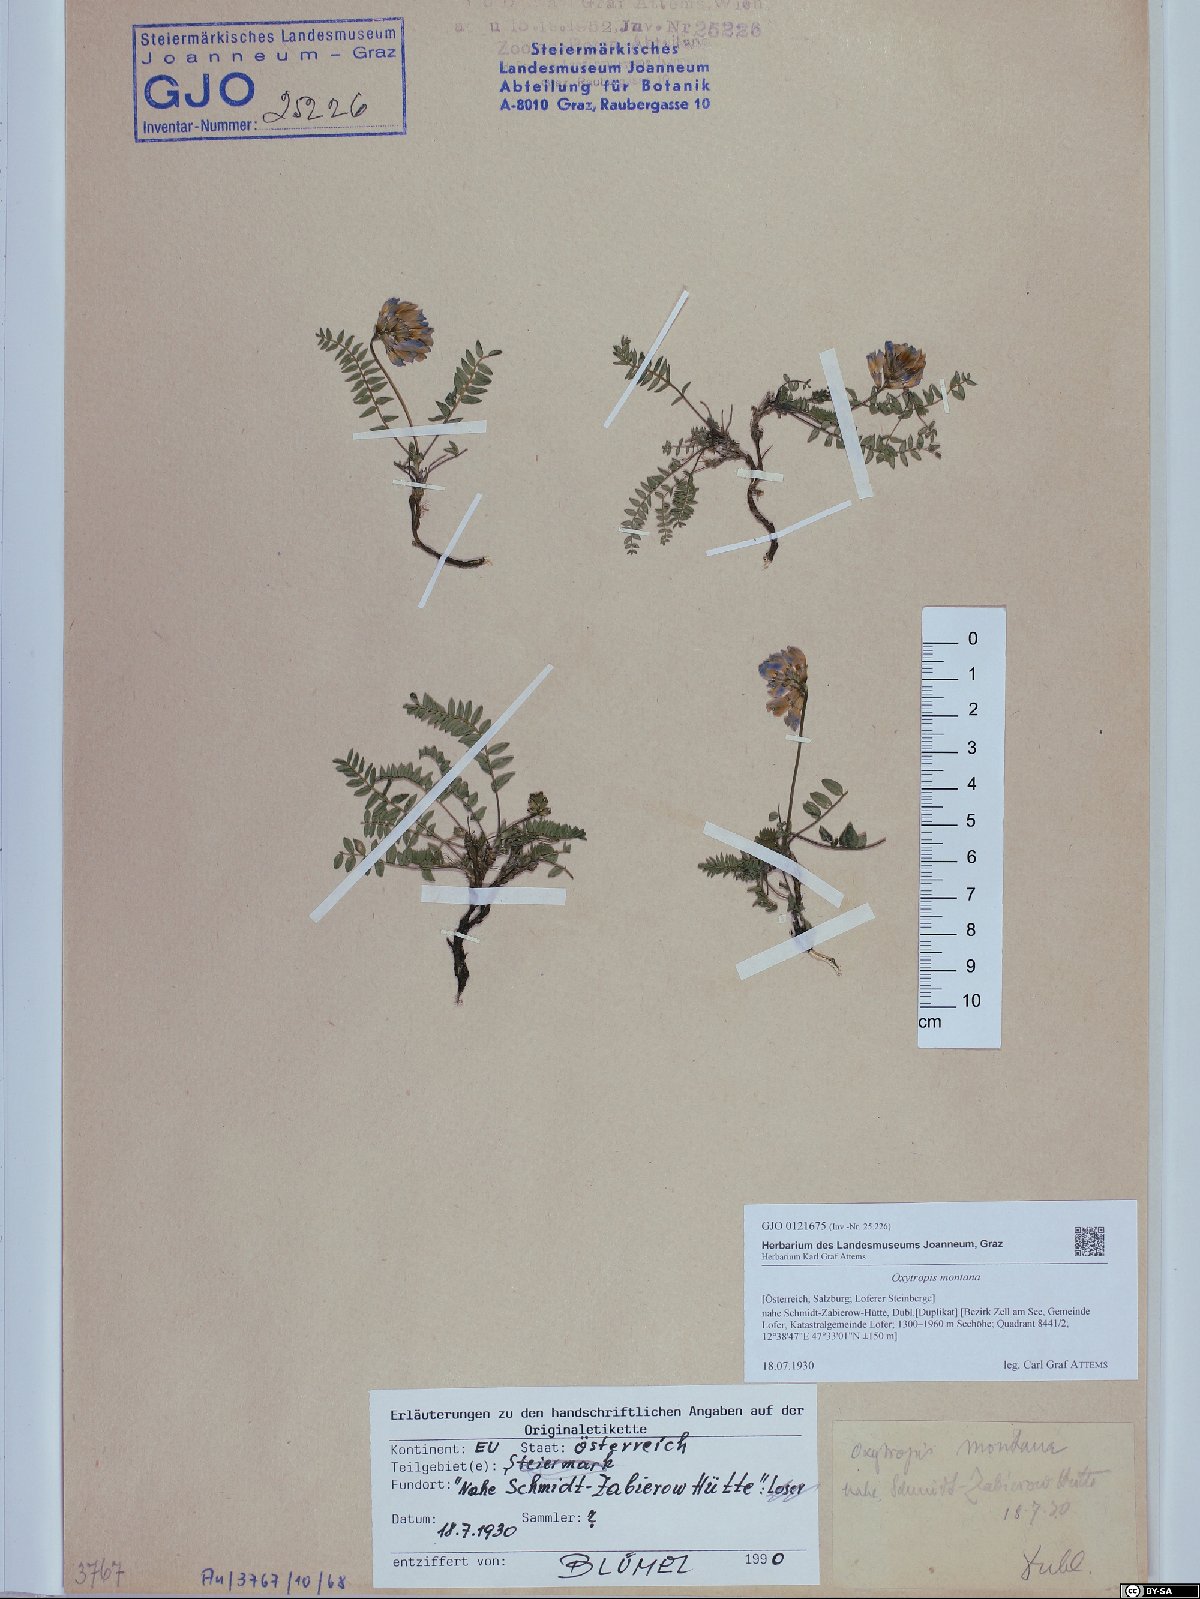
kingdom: Plantae
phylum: Tracheophyta
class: Magnoliopsida
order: Fabales
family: Fabaceae
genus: Oxytropis
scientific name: Oxytropis montana
